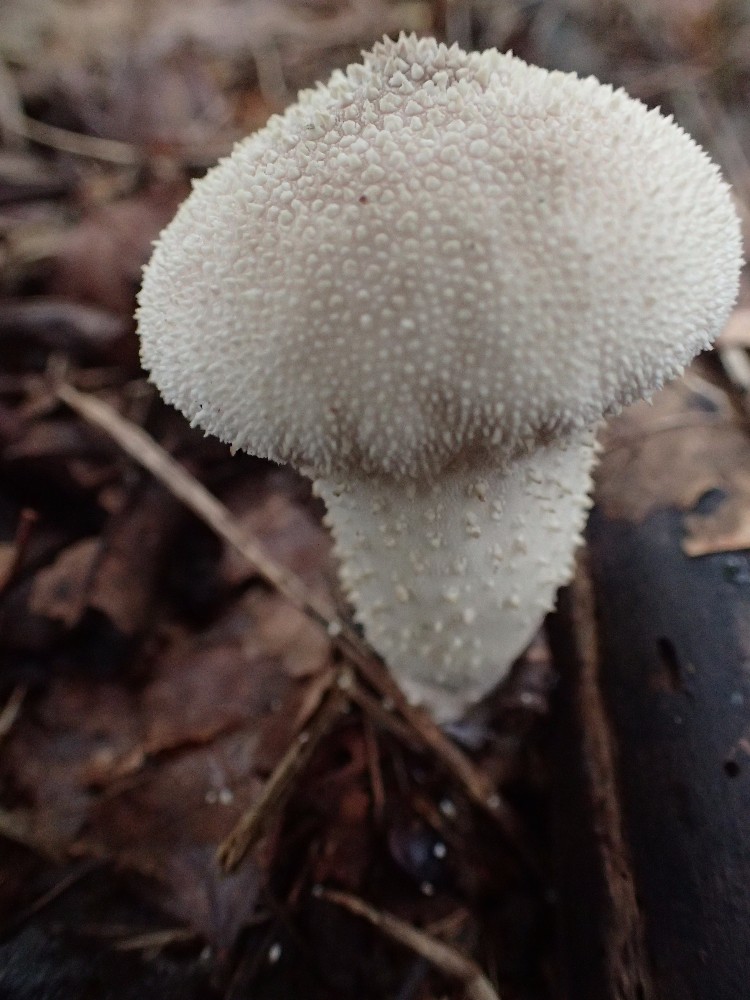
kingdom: Fungi
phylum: Basidiomycota
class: Agaricomycetes
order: Agaricales
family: Lycoperdaceae
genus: Lycoperdon
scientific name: Lycoperdon perlatum
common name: krystal-støvbold
